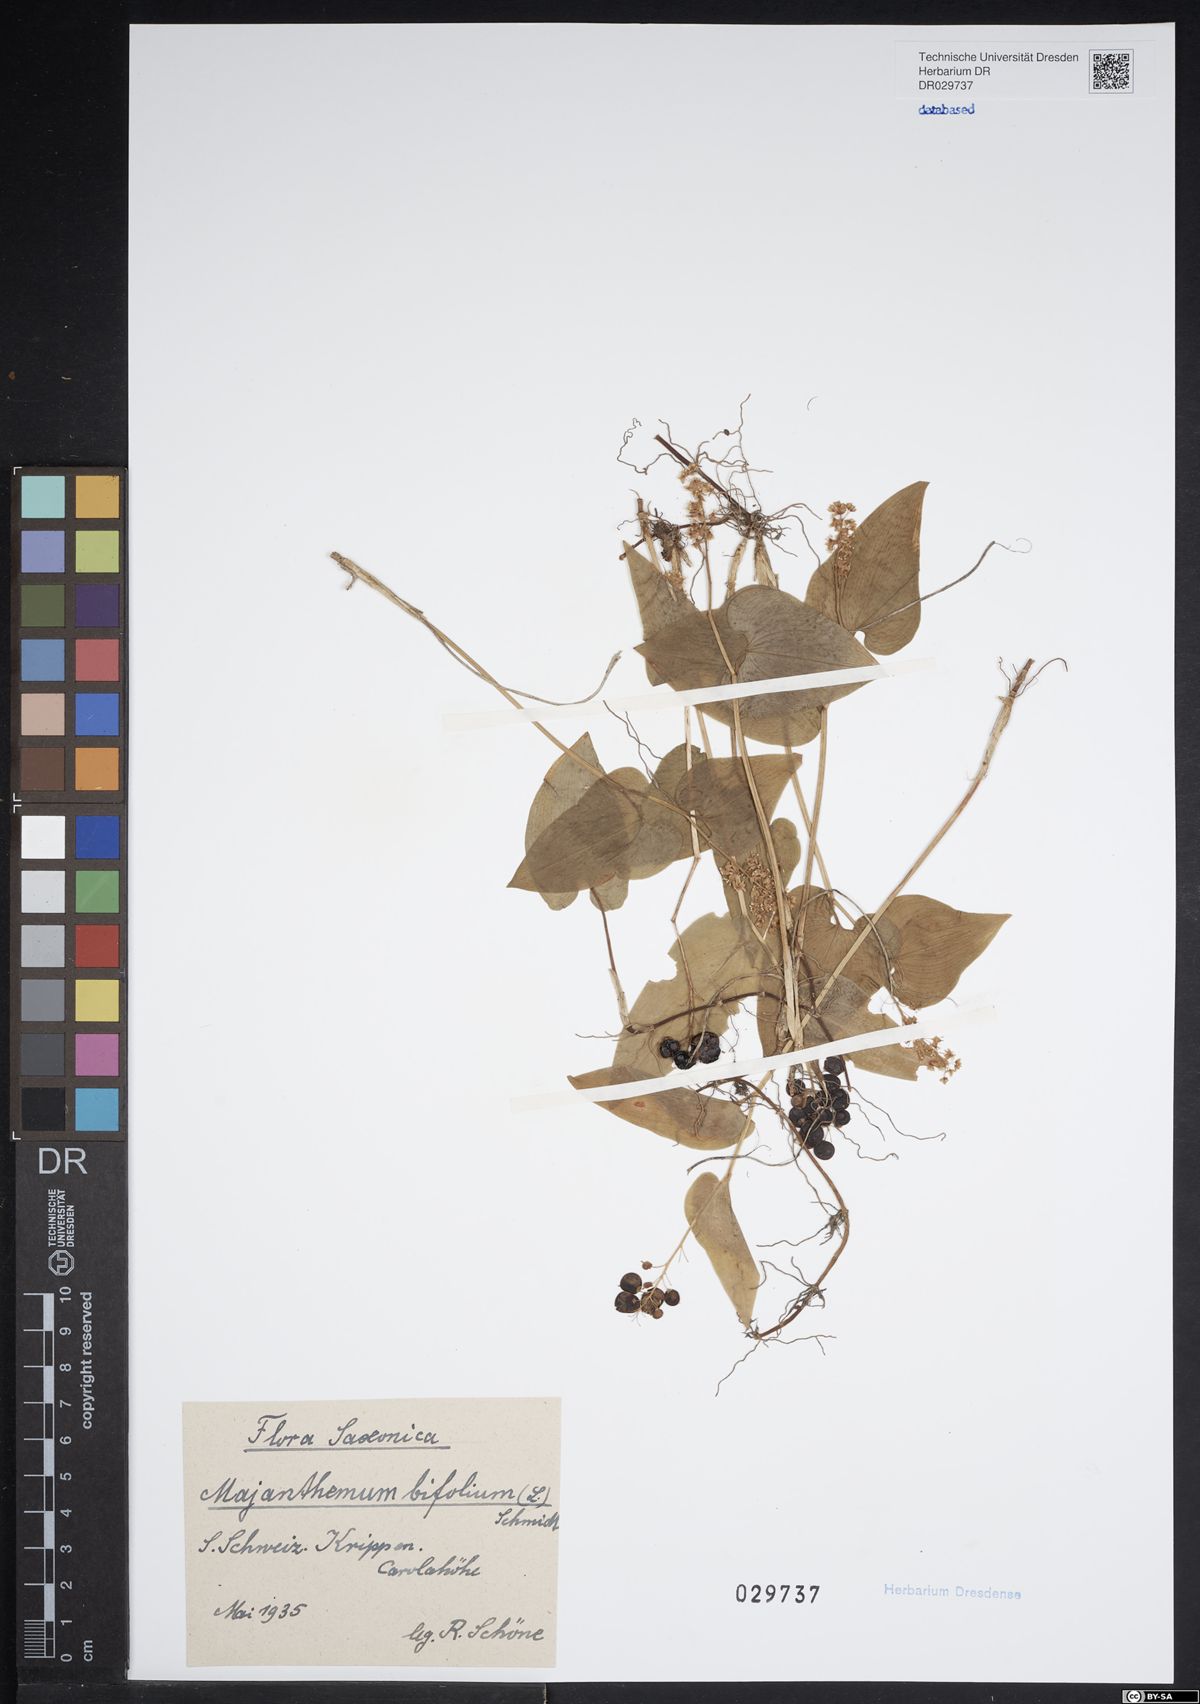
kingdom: Plantae
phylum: Tracheophyta
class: Liliopsida
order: Asparagales
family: Asparagaceae
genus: Maianthemum
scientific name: Maianthemum bifolium
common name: May lily
